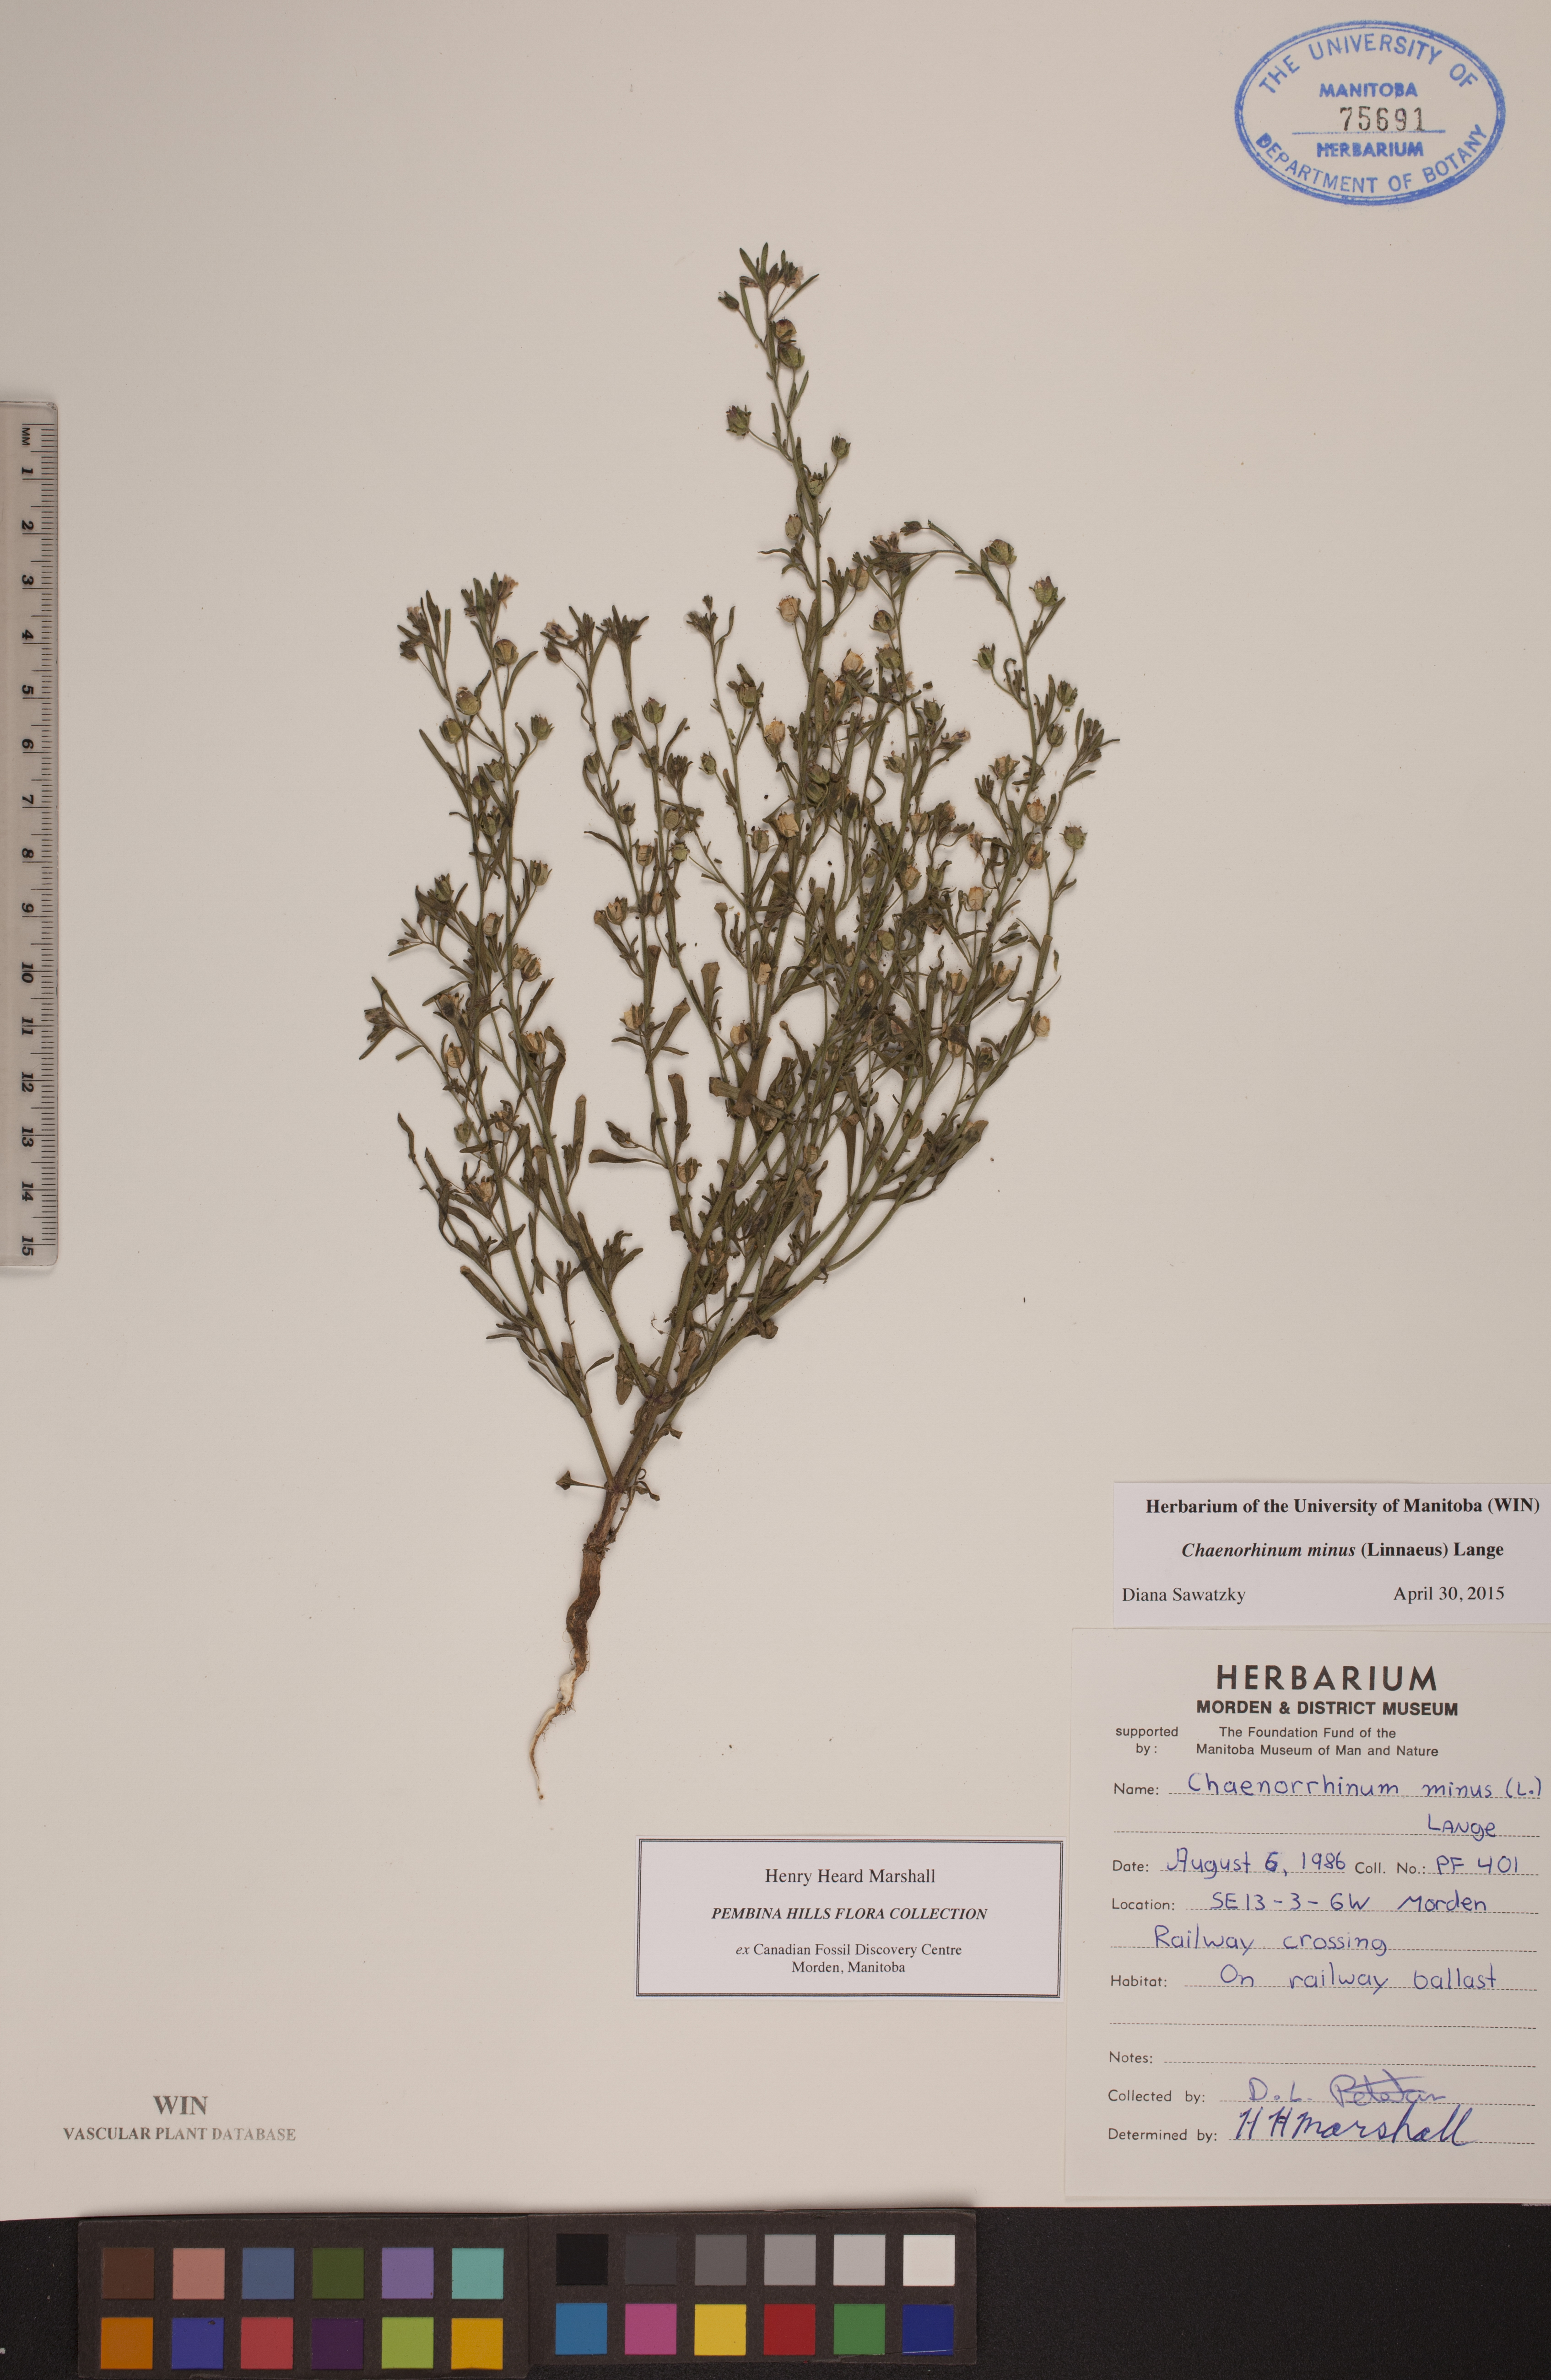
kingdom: Plantae
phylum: Tracheophyta
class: Magnoliopsida
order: Lamiales
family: Plantaginaceae
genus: Chaenorhinum
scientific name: Chaenorhinum minus
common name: Dwarf snapdragon
